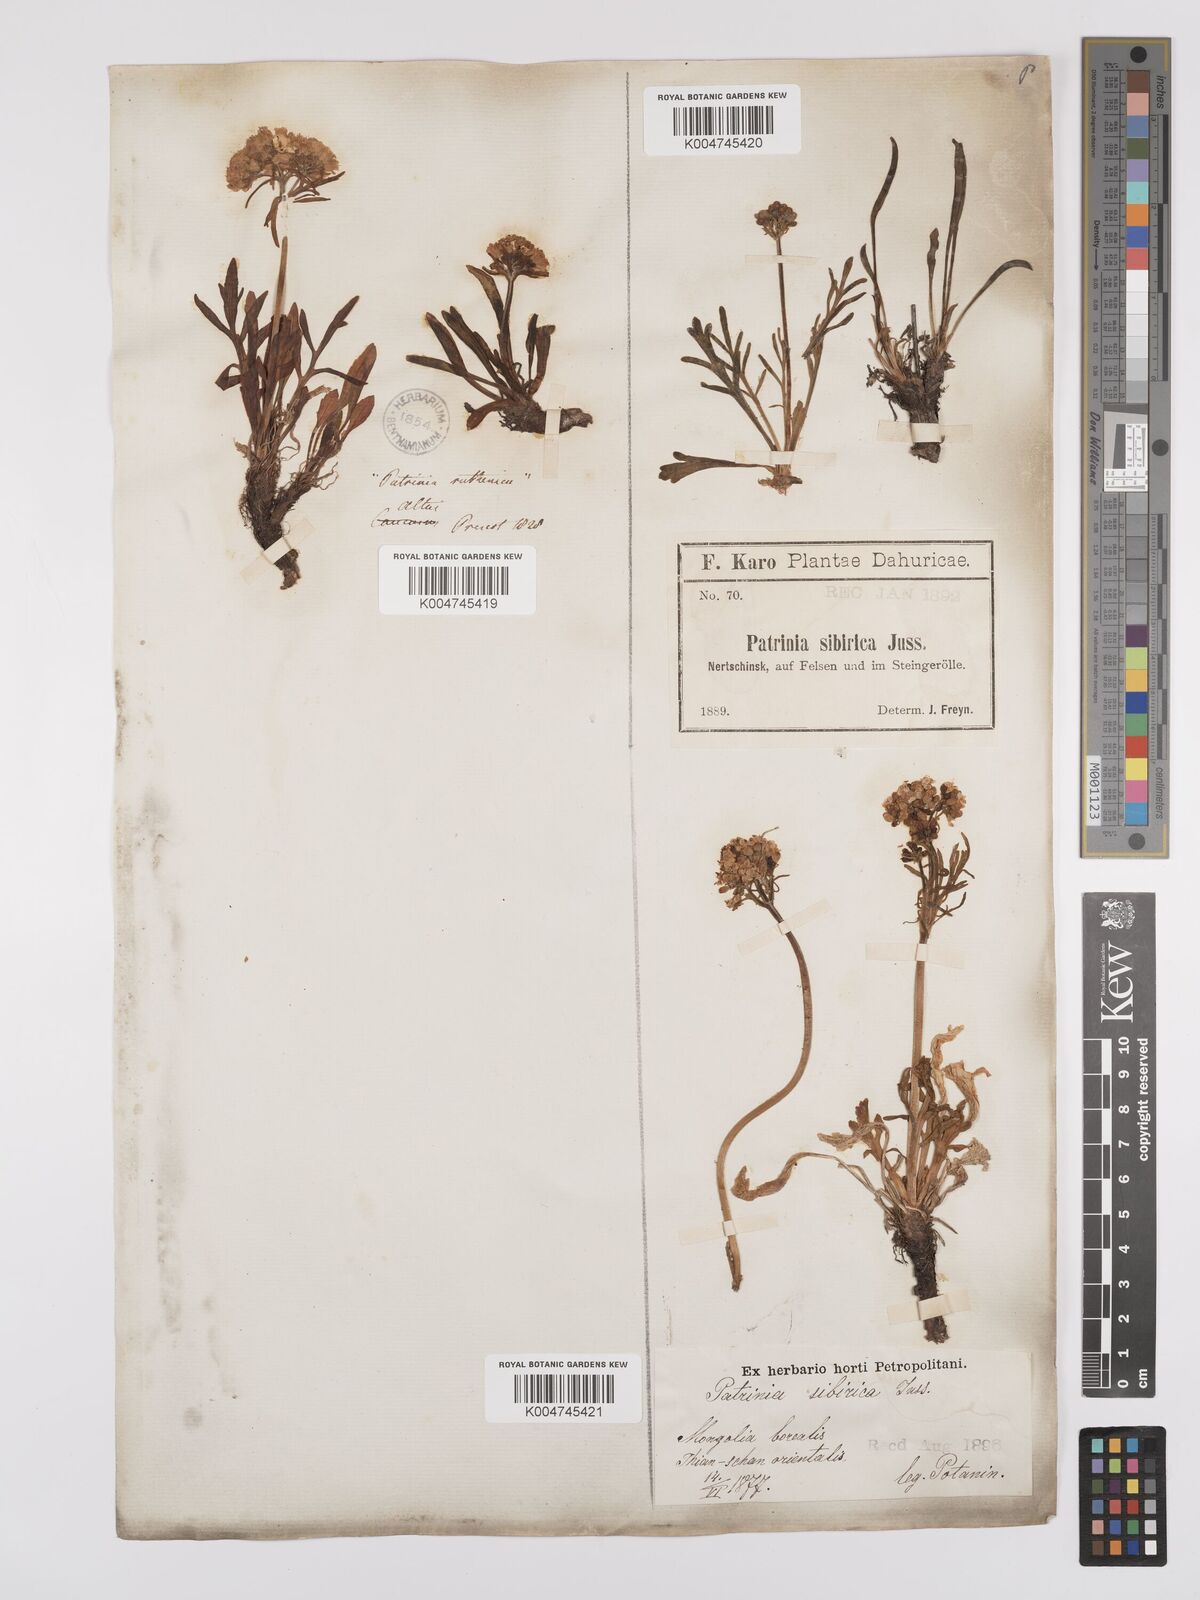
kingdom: Plantae
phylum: Tracheophyta
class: Magnoliopsida
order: Dipsacales
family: Caprifoliaceae
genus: Patrinia
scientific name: Patrinia sibirica
